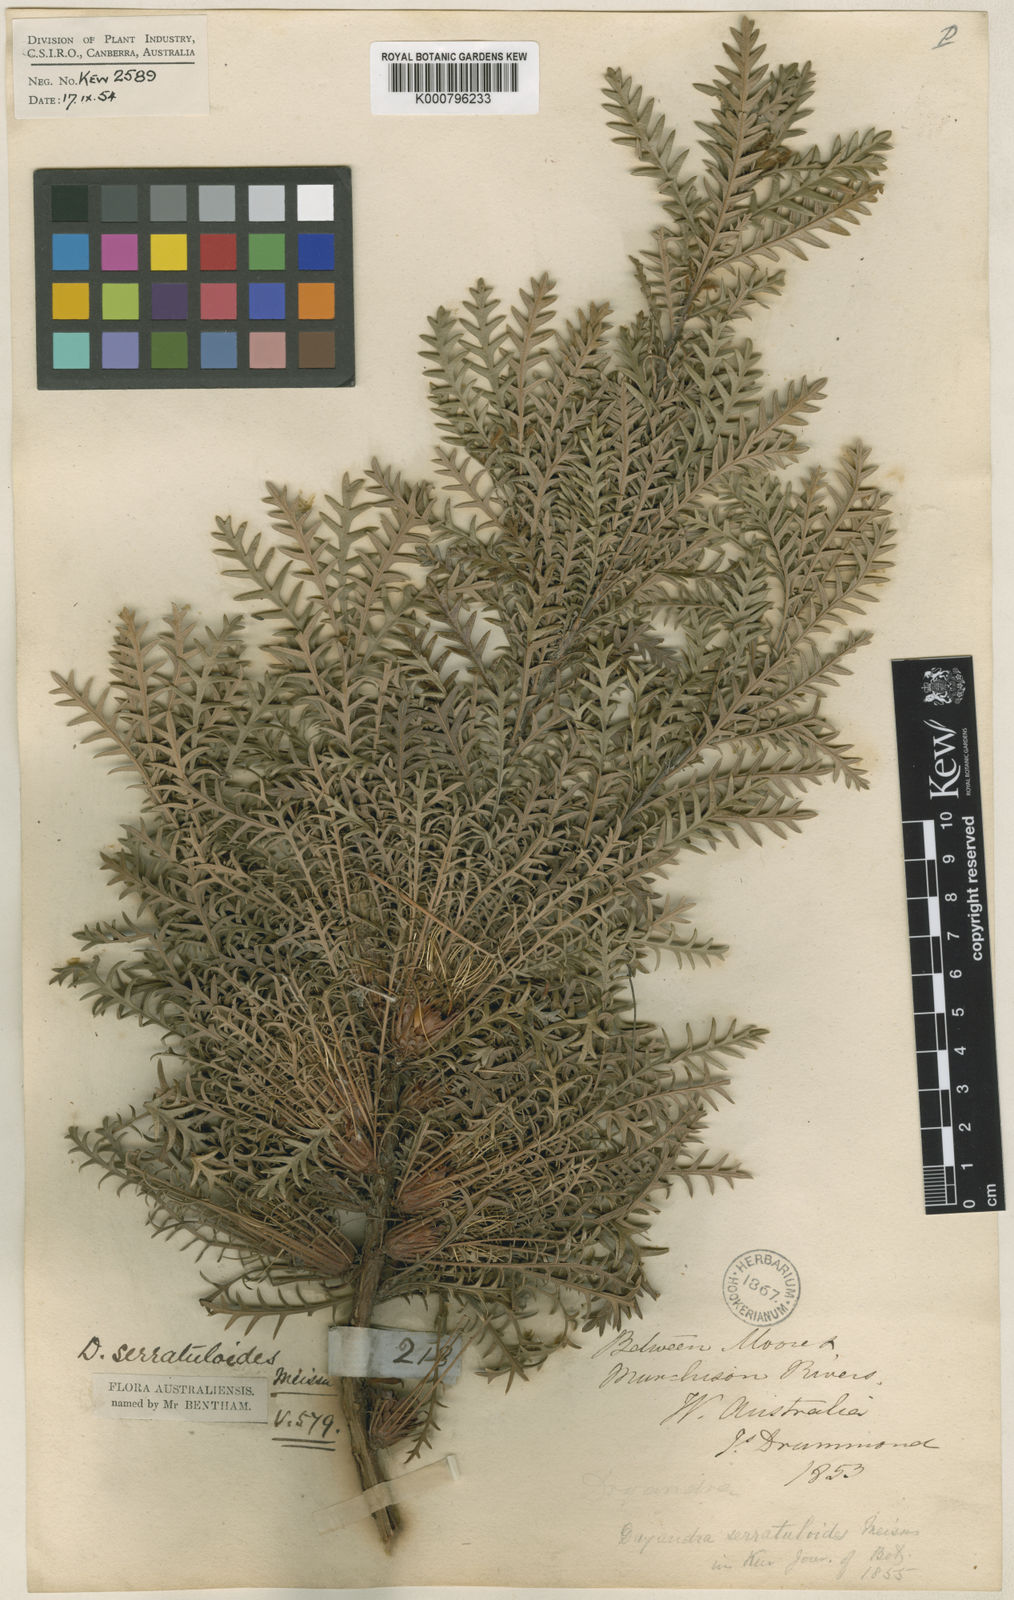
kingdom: Plantae
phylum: Tracheophyta
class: Magnoliopsida
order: Proteales
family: Proteaceae
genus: Banksia
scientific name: Banksia serratuloides
